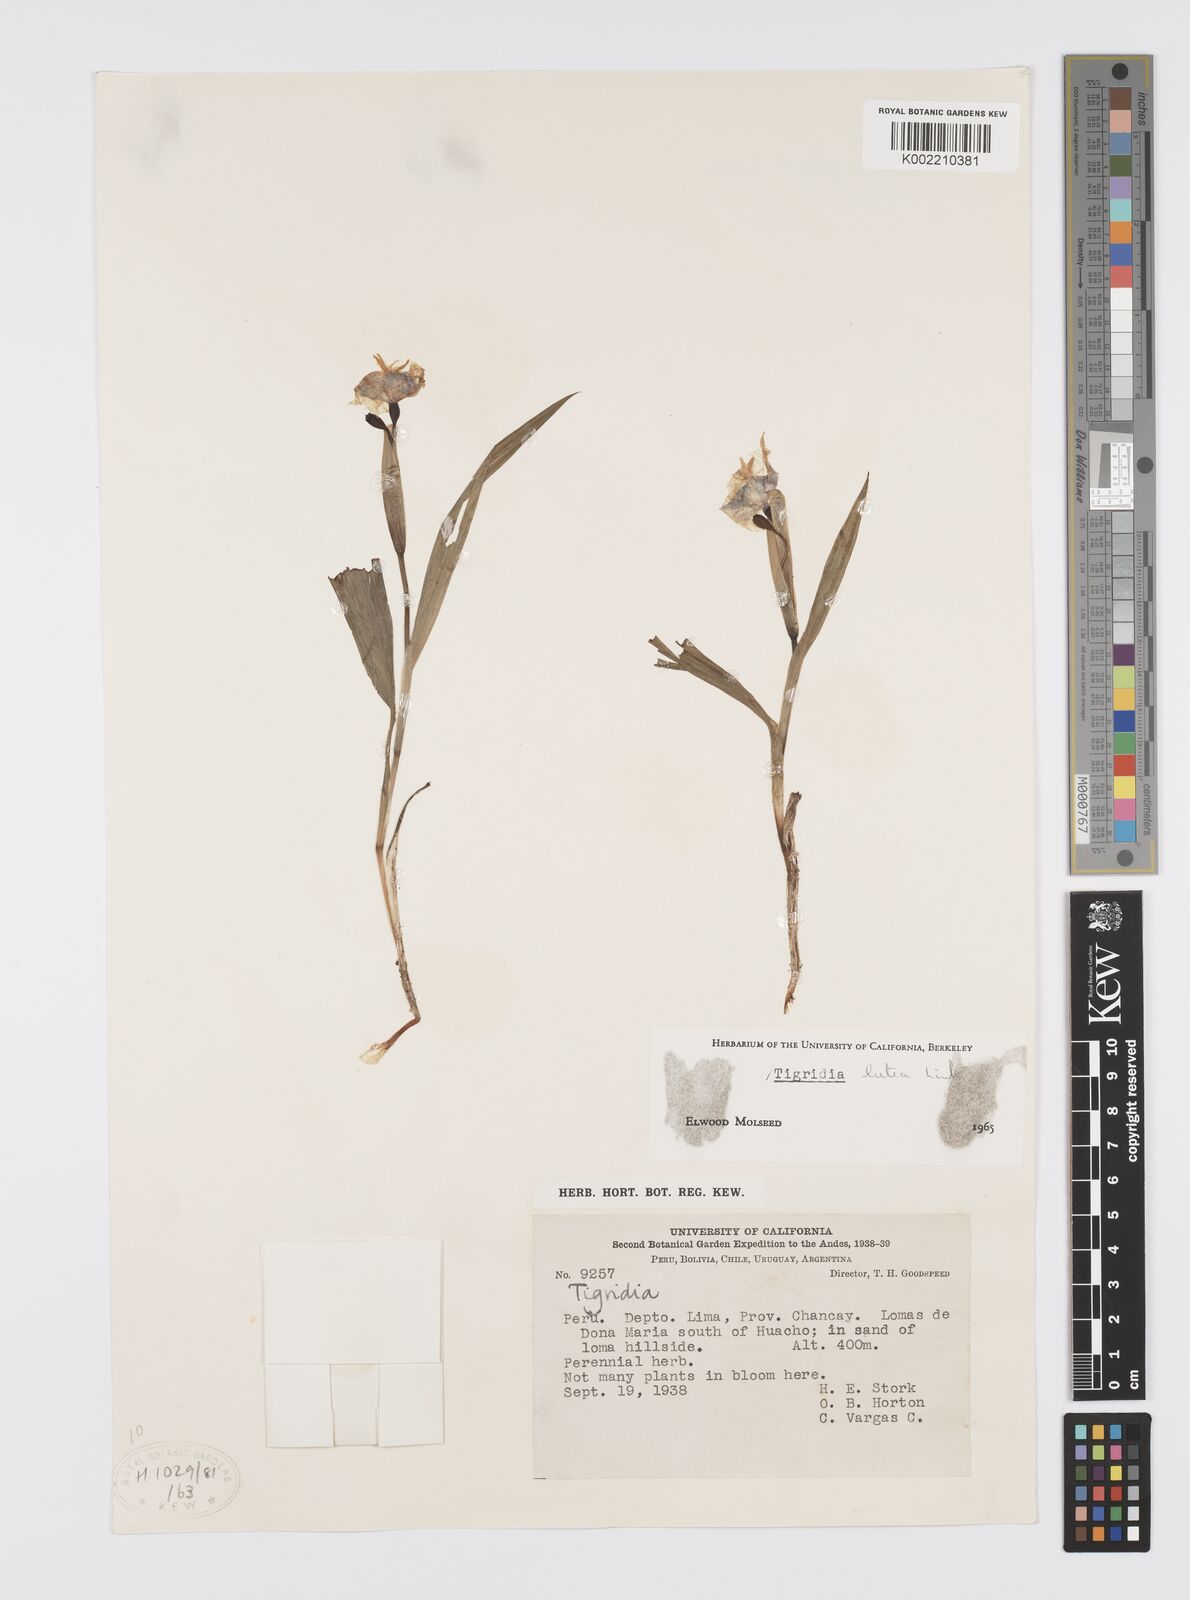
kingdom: Plantae
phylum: Tracheophyta
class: Liliopsida
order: Asparagales
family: Iridaceae
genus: Tigridia
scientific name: Tigridia pavonia
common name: Peacock-flower
